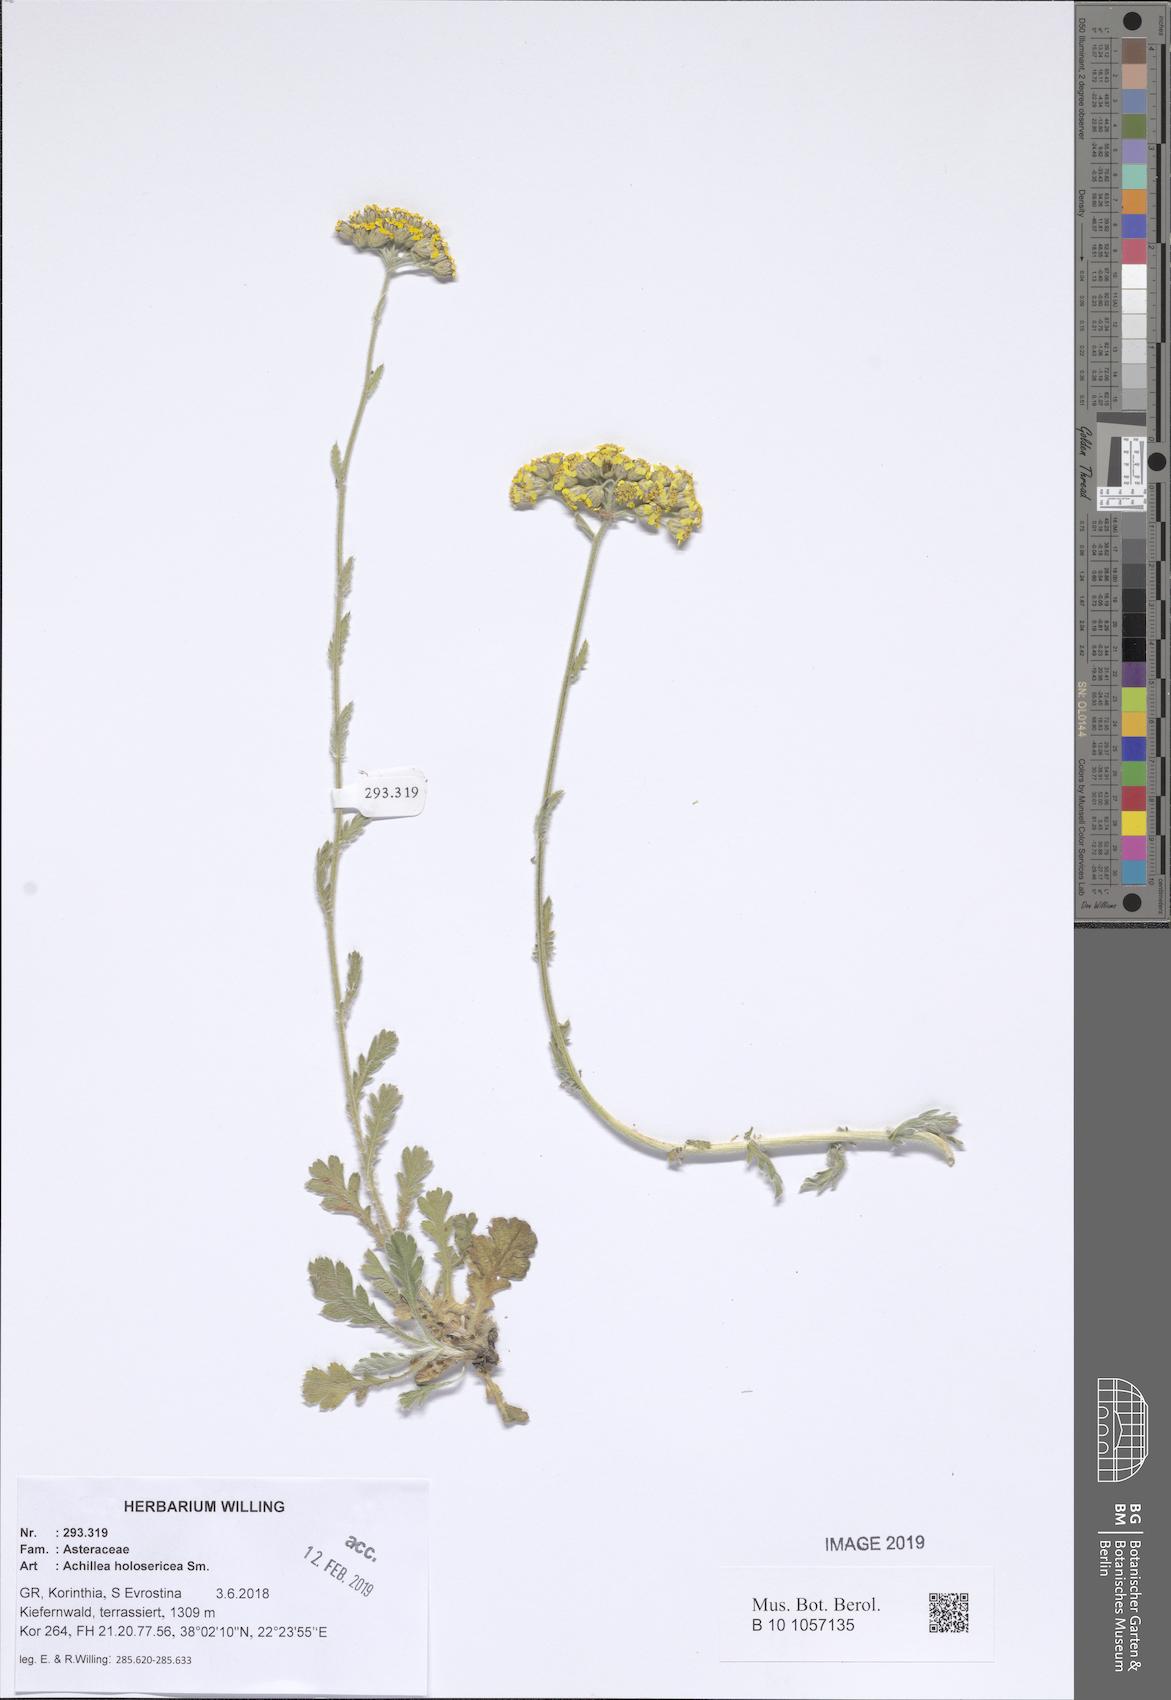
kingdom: Plantae
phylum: Tracheophyta
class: Magnoliopsida
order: Asterales
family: Asteraceae
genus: Achillea
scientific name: Achillea holosericea
